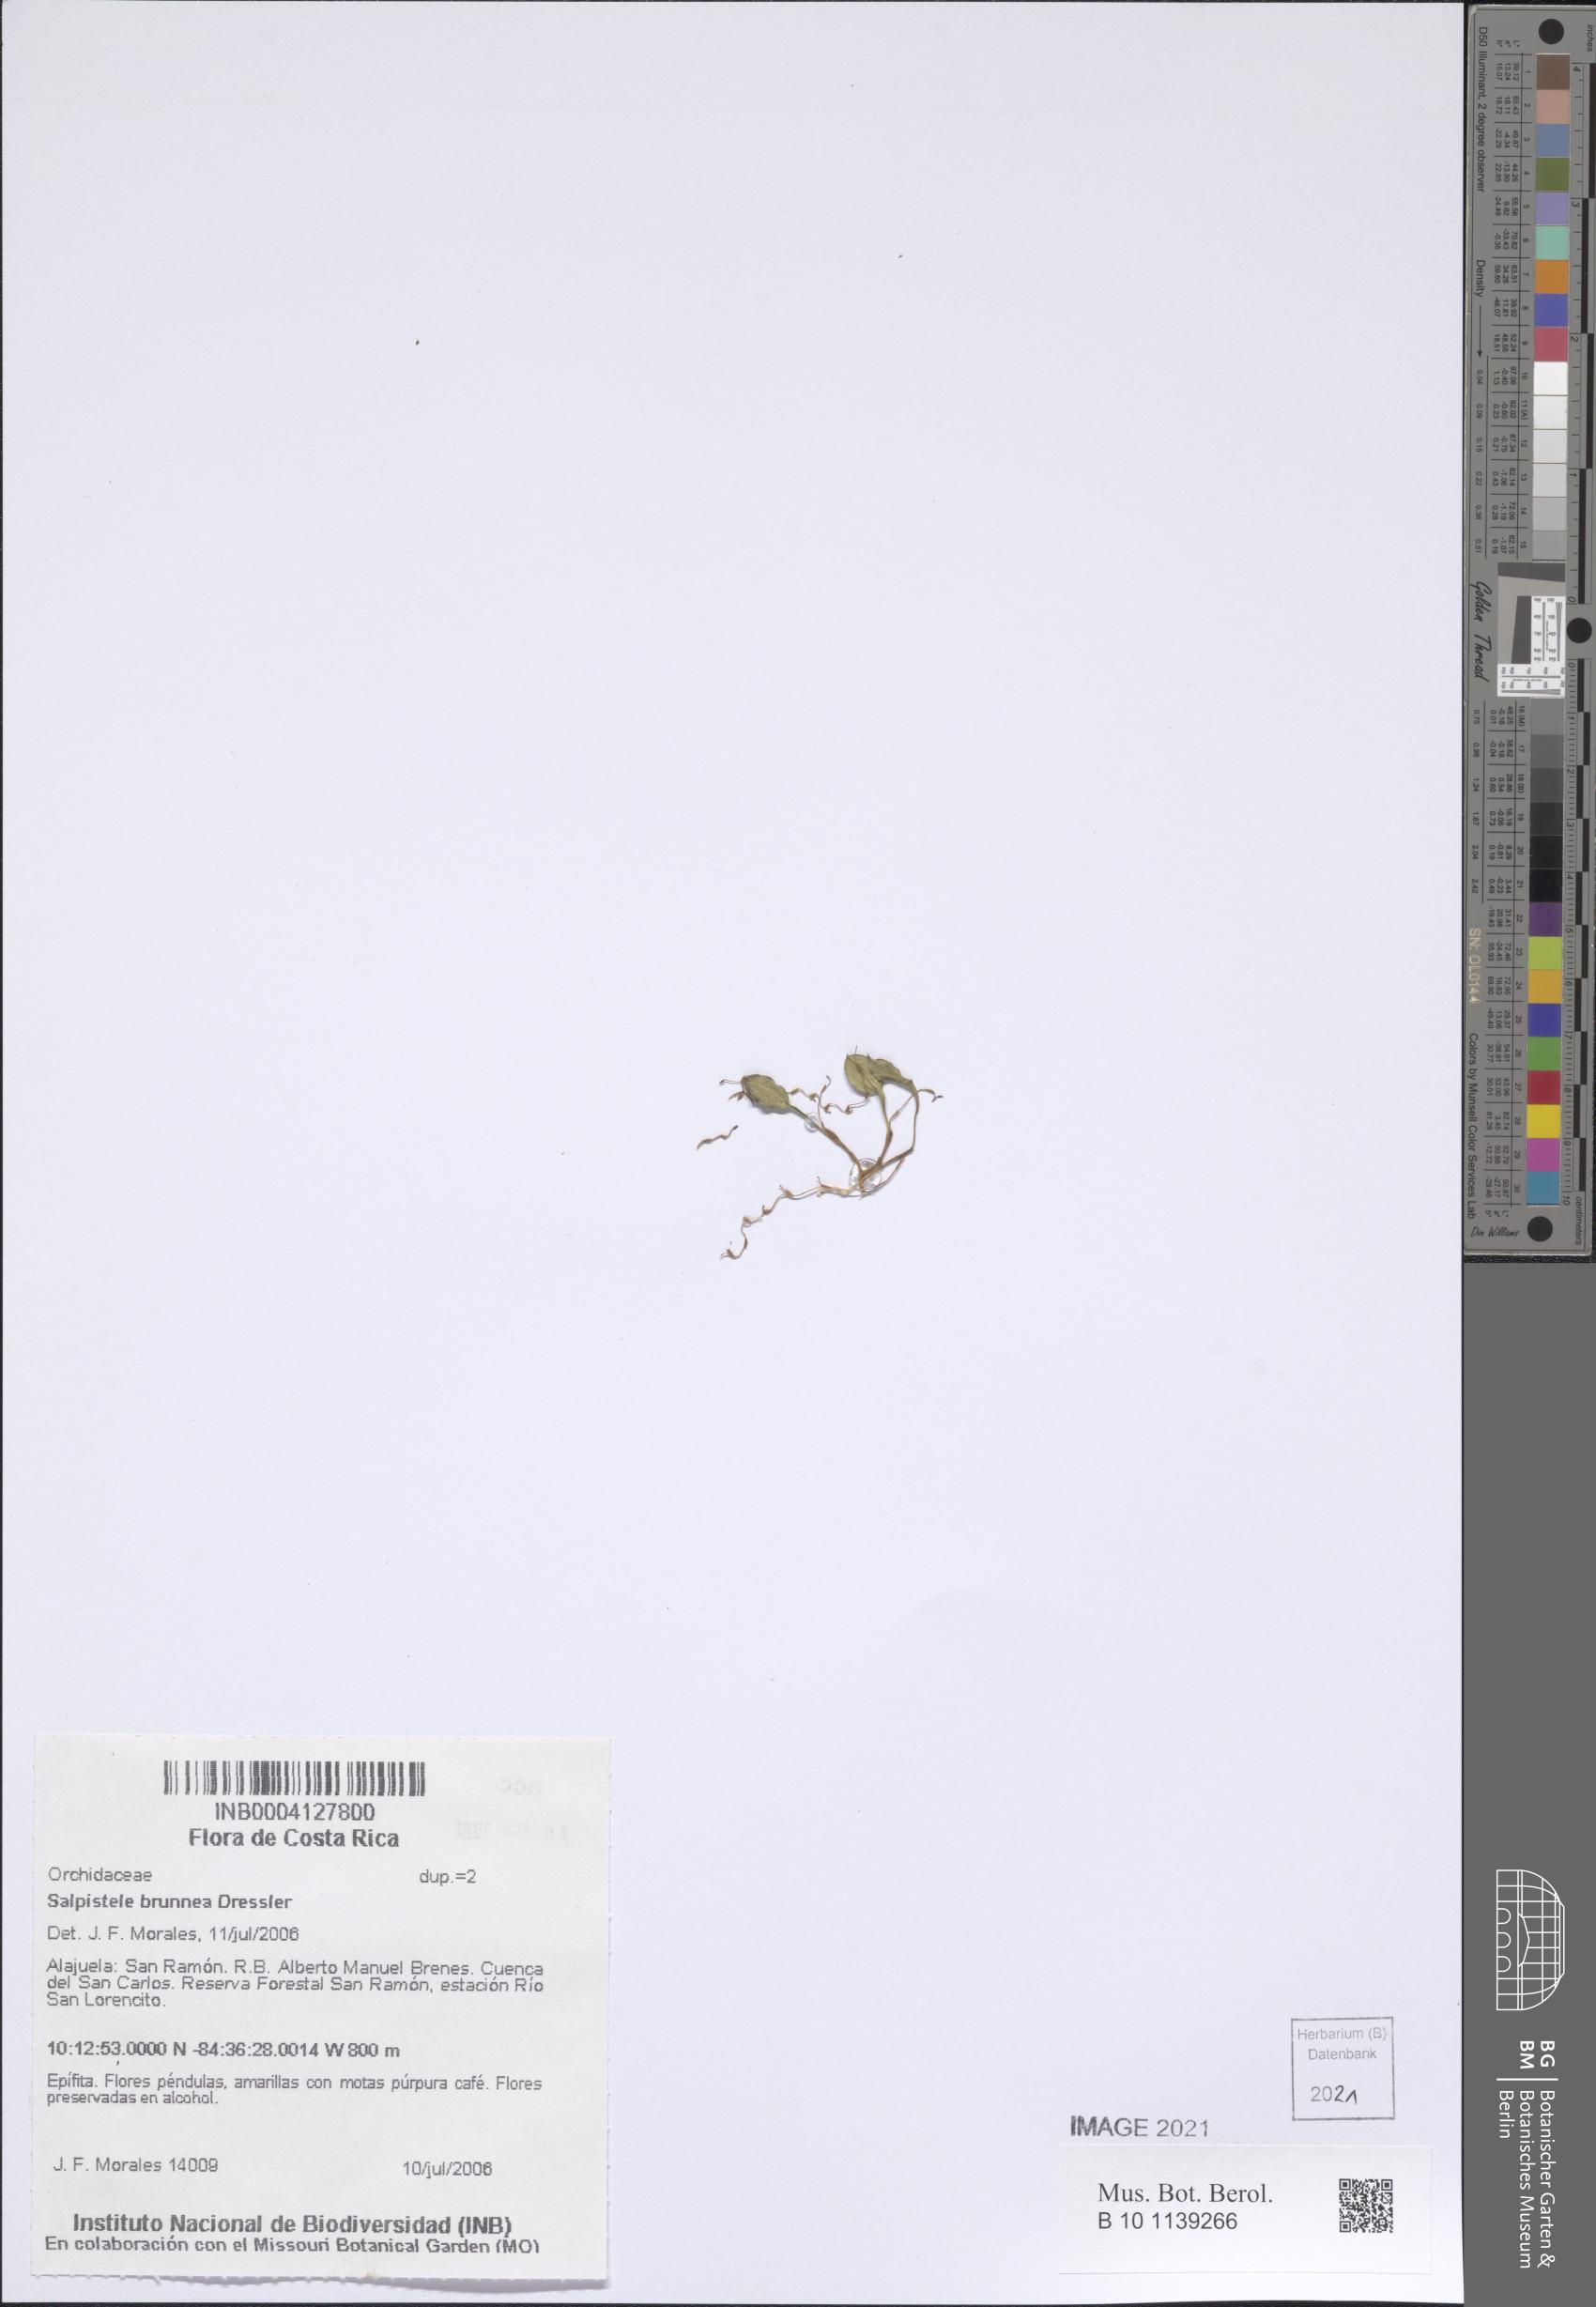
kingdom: Plantae
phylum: Tracheophyta
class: Liliopsida
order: Asparagales
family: Orchidaceae
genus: Stelis
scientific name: Stelis brunnea
